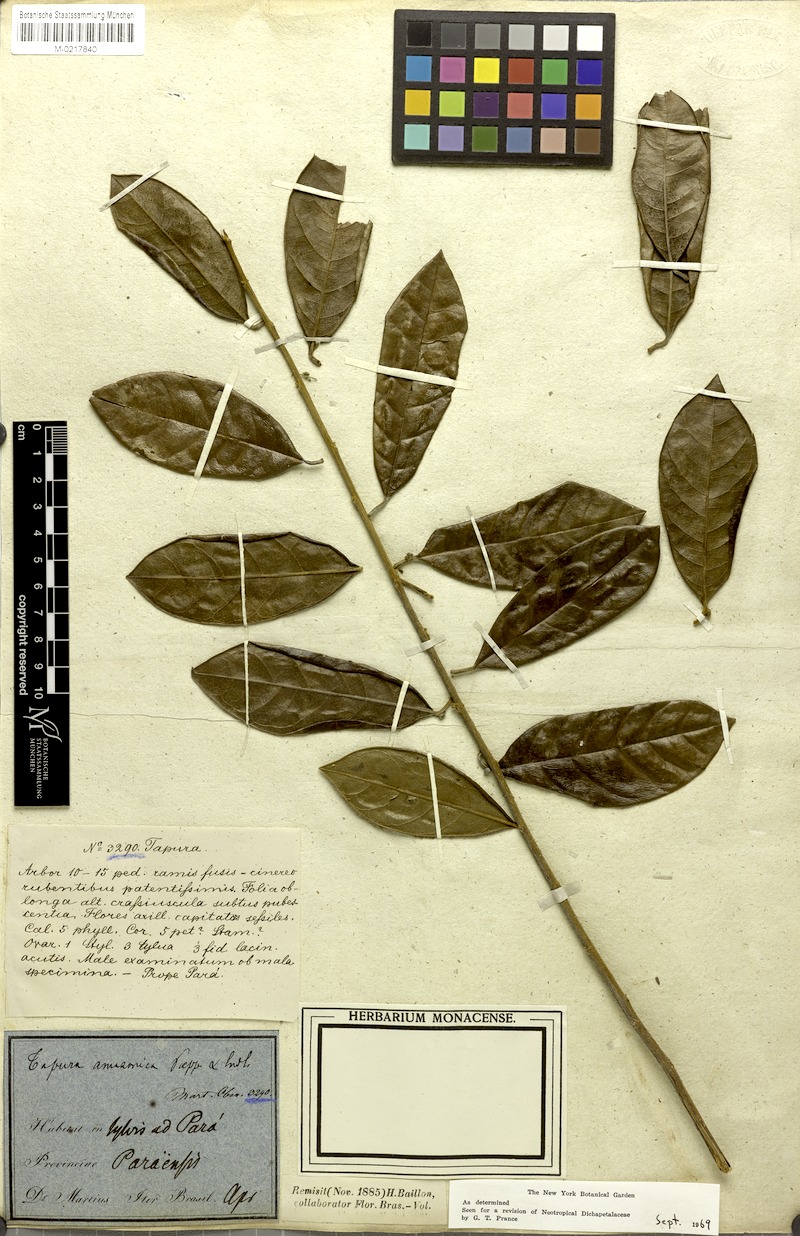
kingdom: Plantae
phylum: Tracheophyta
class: Magnoliopsida
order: Malpighiales
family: Dichapetalaceae
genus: Tapura
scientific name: Tapura amazonica
